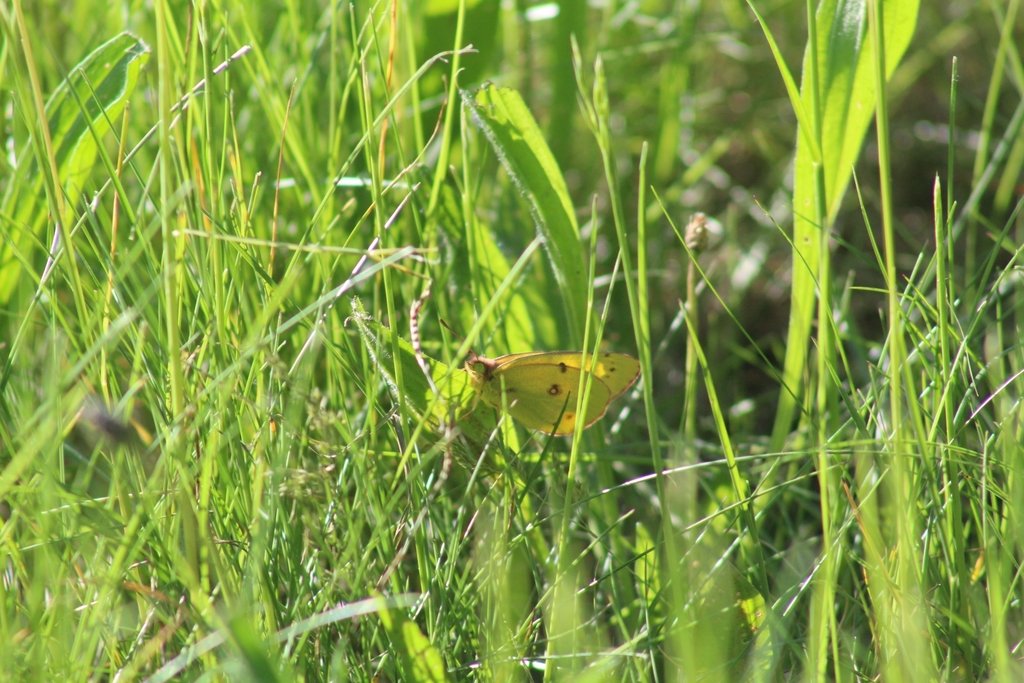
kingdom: Animalia
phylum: Arthropoda
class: Insecta
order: Lepidoptera
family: Pieridae
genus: Colias
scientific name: Colias eurytheme
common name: Orange Sulphur
